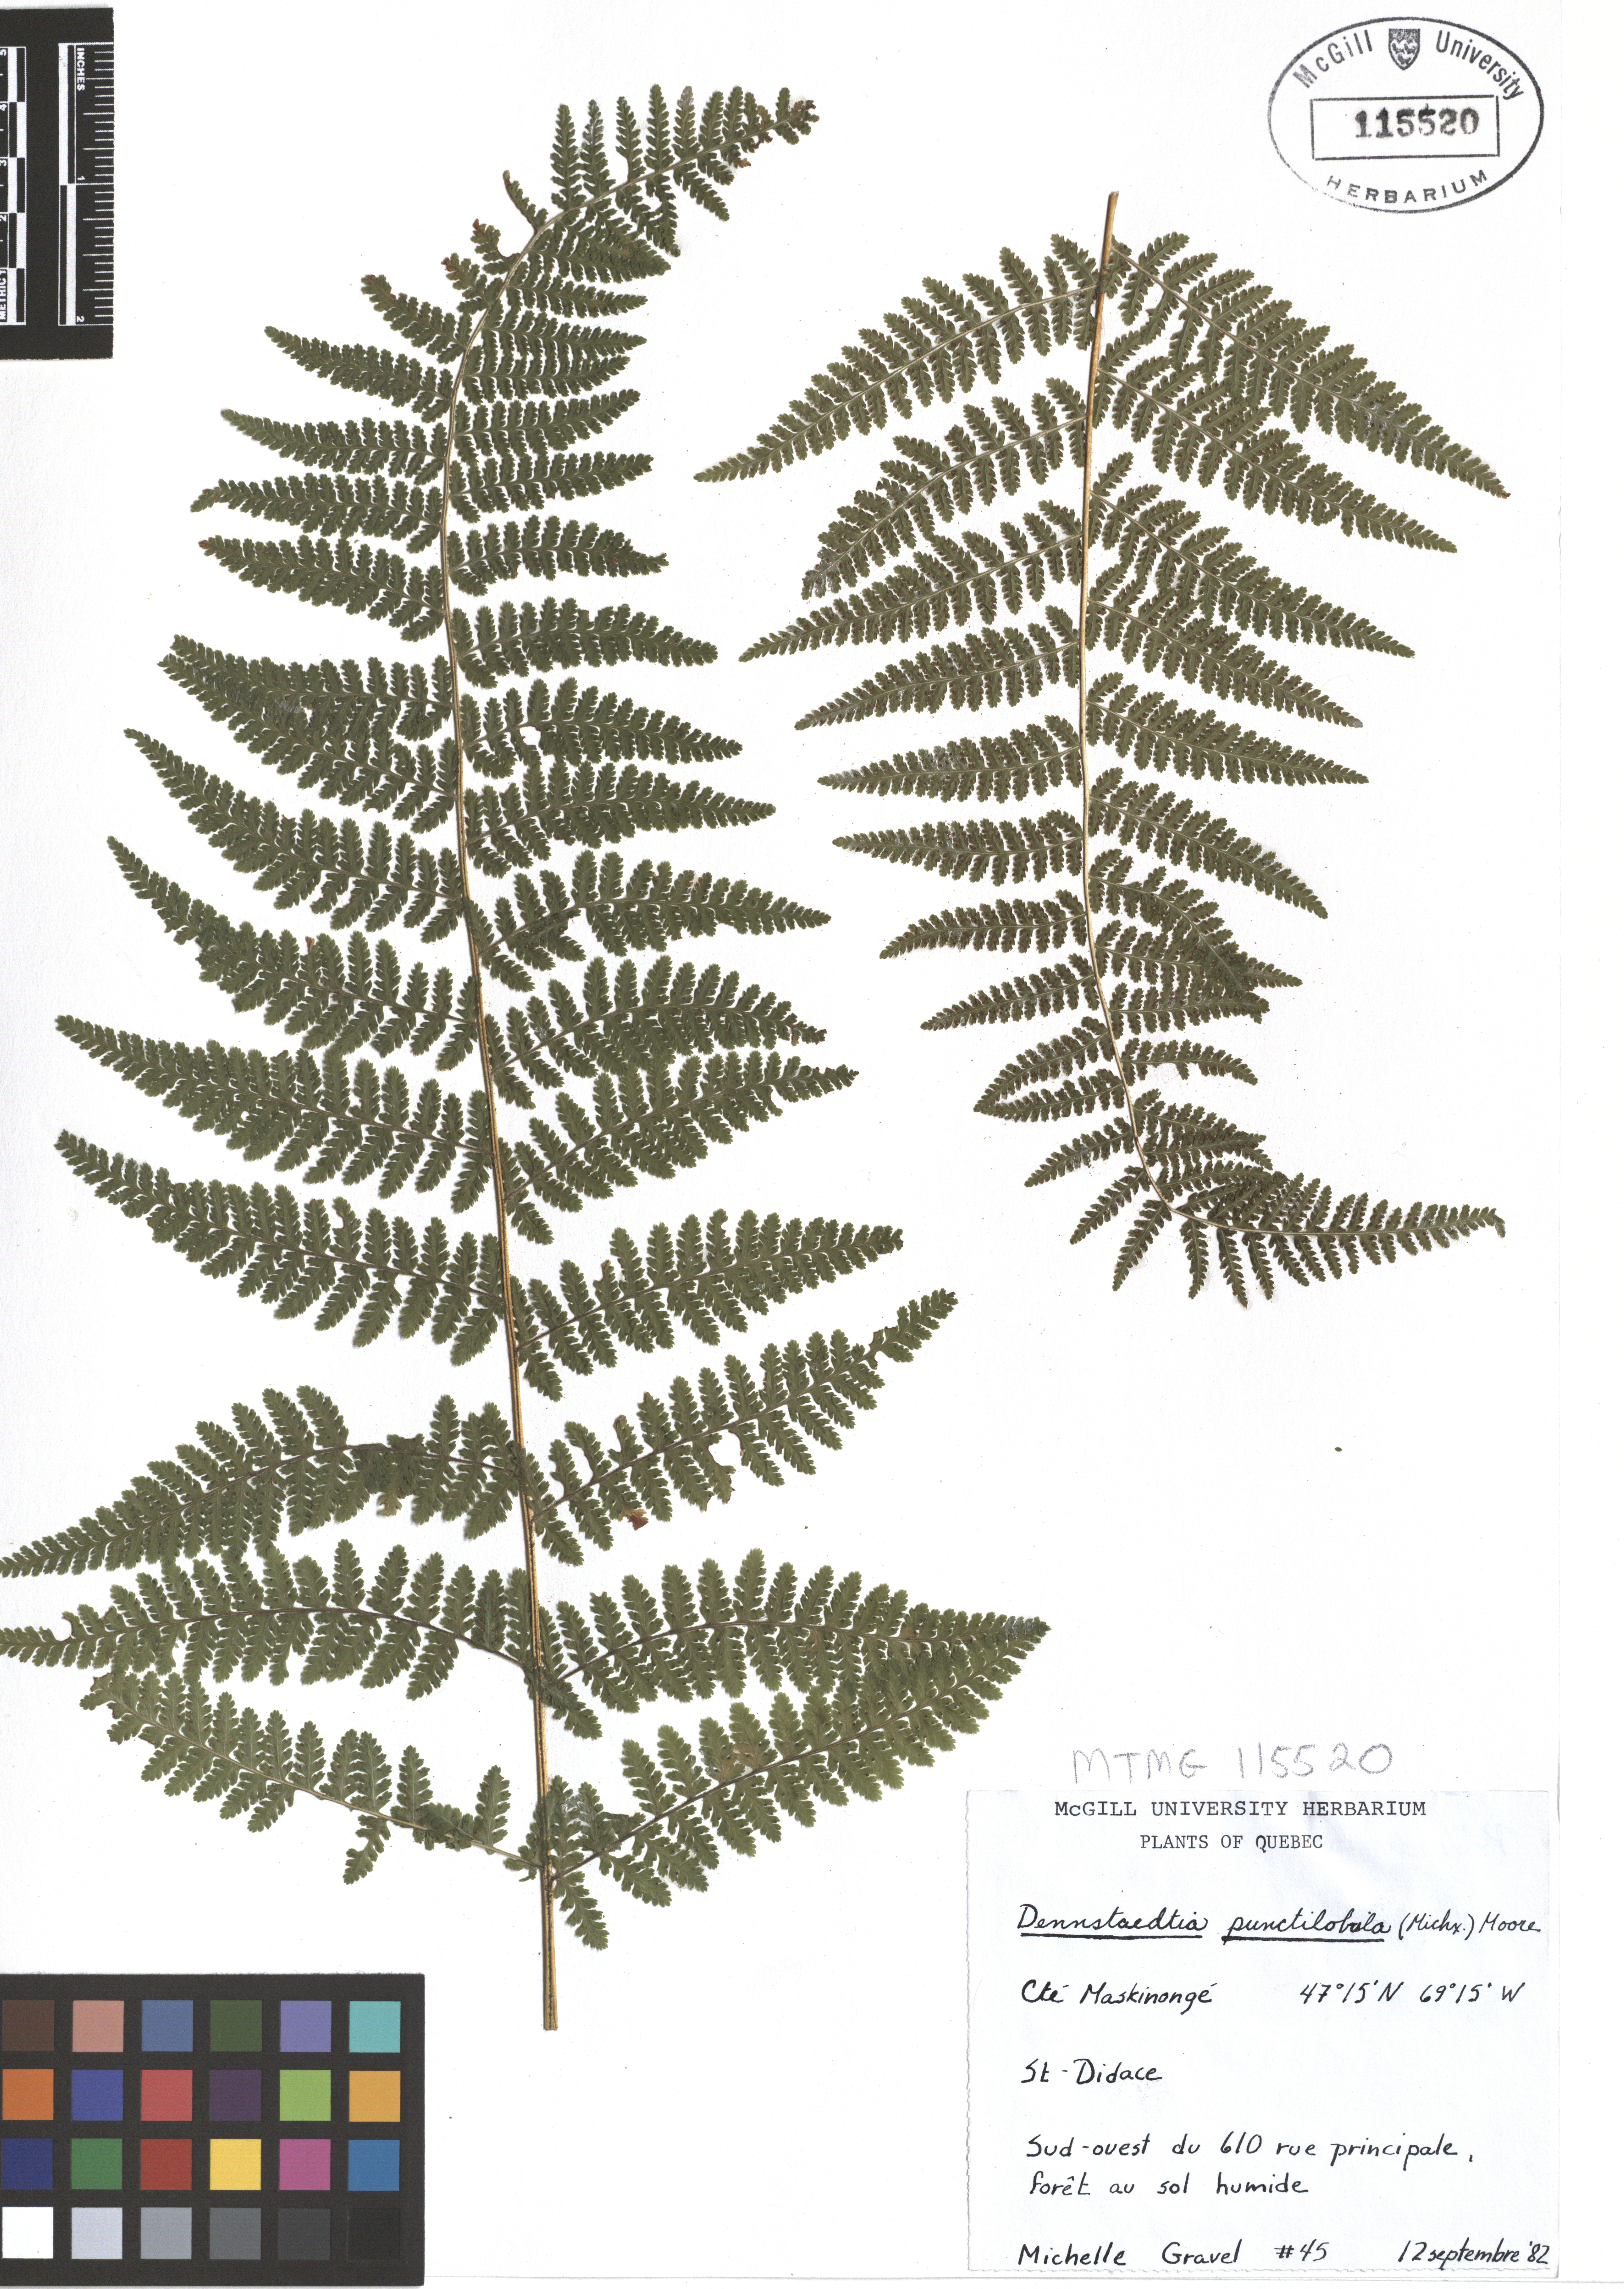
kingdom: Plantae
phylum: Tracheophyta
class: Polypodiopsida
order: Polypodiales
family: Dennstaedtiaceae
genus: Sitobolium
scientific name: Sitobolium punctilobum
